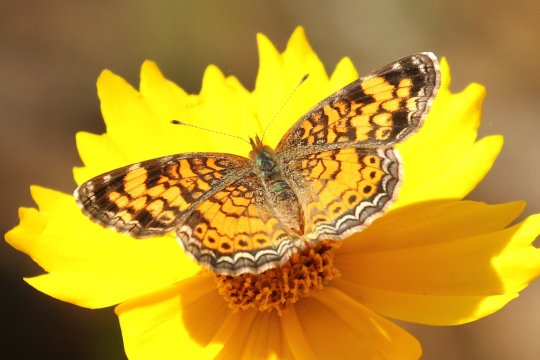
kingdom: Animalia
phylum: Arthropoda
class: Insecta
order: Lepidoptera
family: Nymphalidae
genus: Phyciodes
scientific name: Phyciodes tharos
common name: Pearl Crescent
